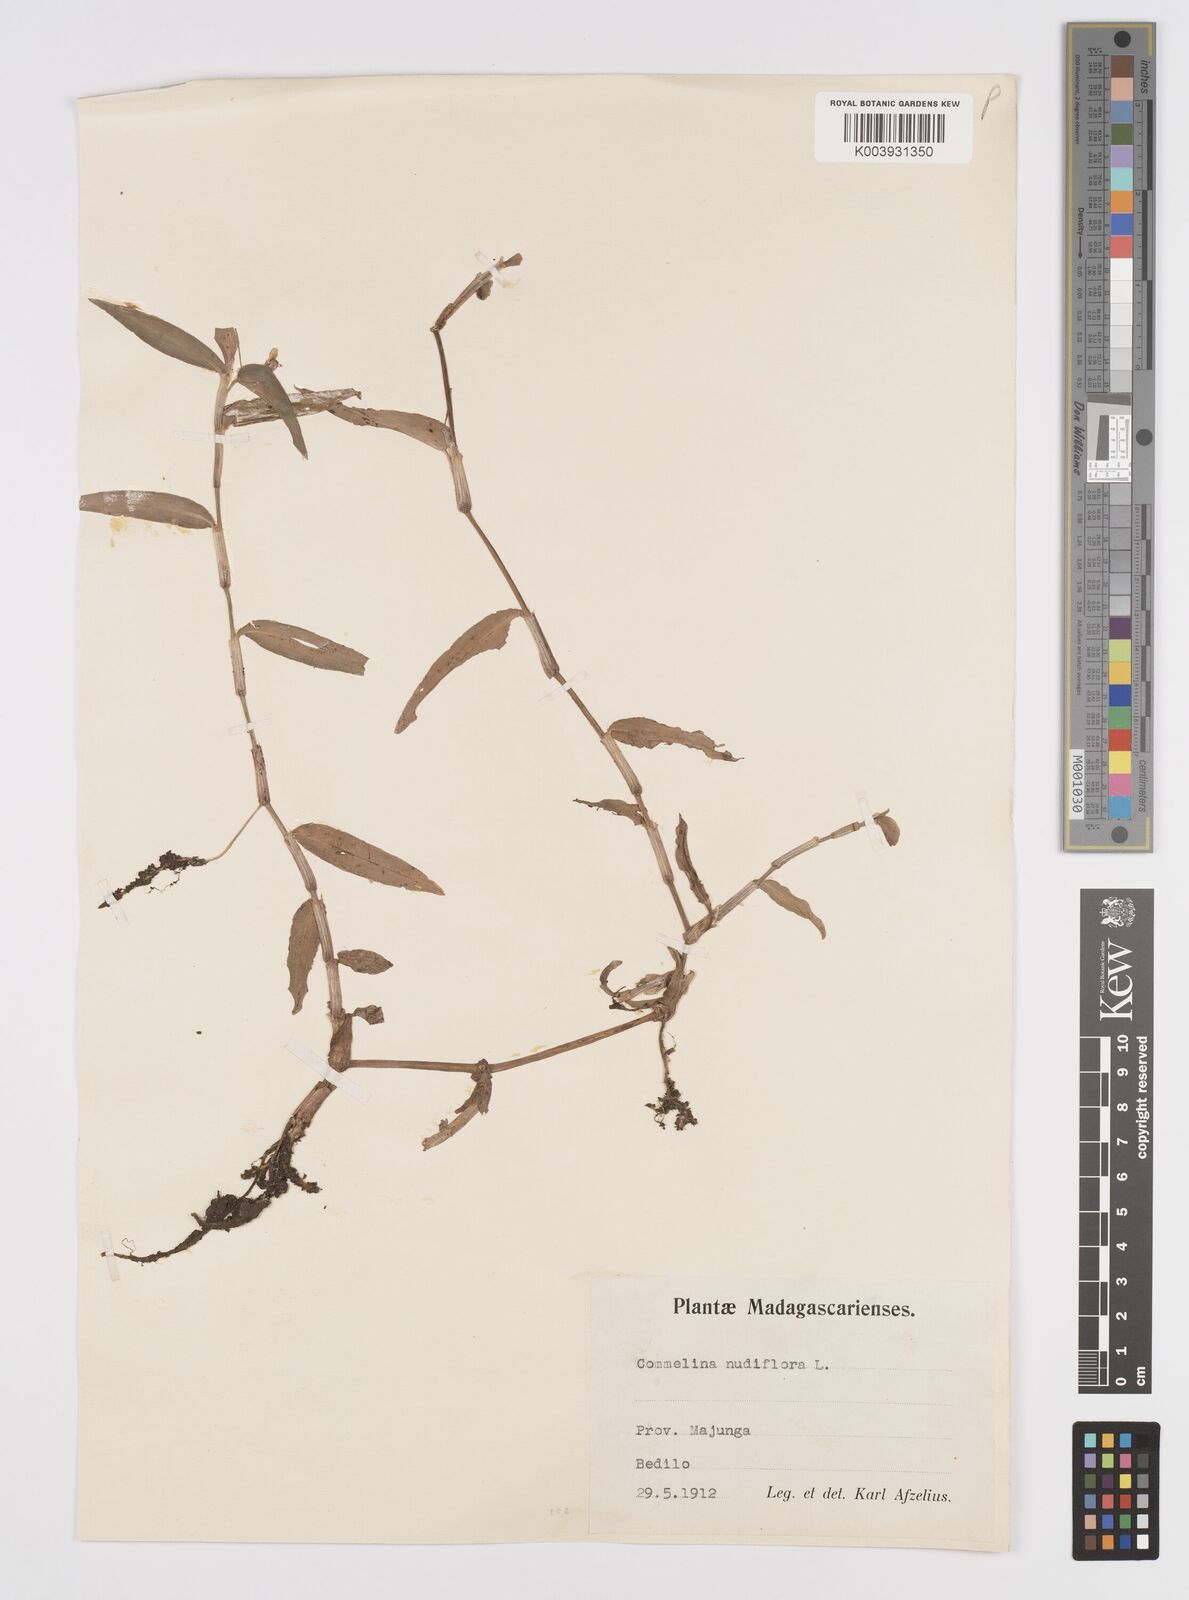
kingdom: Plantae
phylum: Tracheophyta
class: Liliopsida
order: Commelinales
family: Commelinaceae
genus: Murdannia
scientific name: Murdannia nudiflora
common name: Nakedstem dewflower
